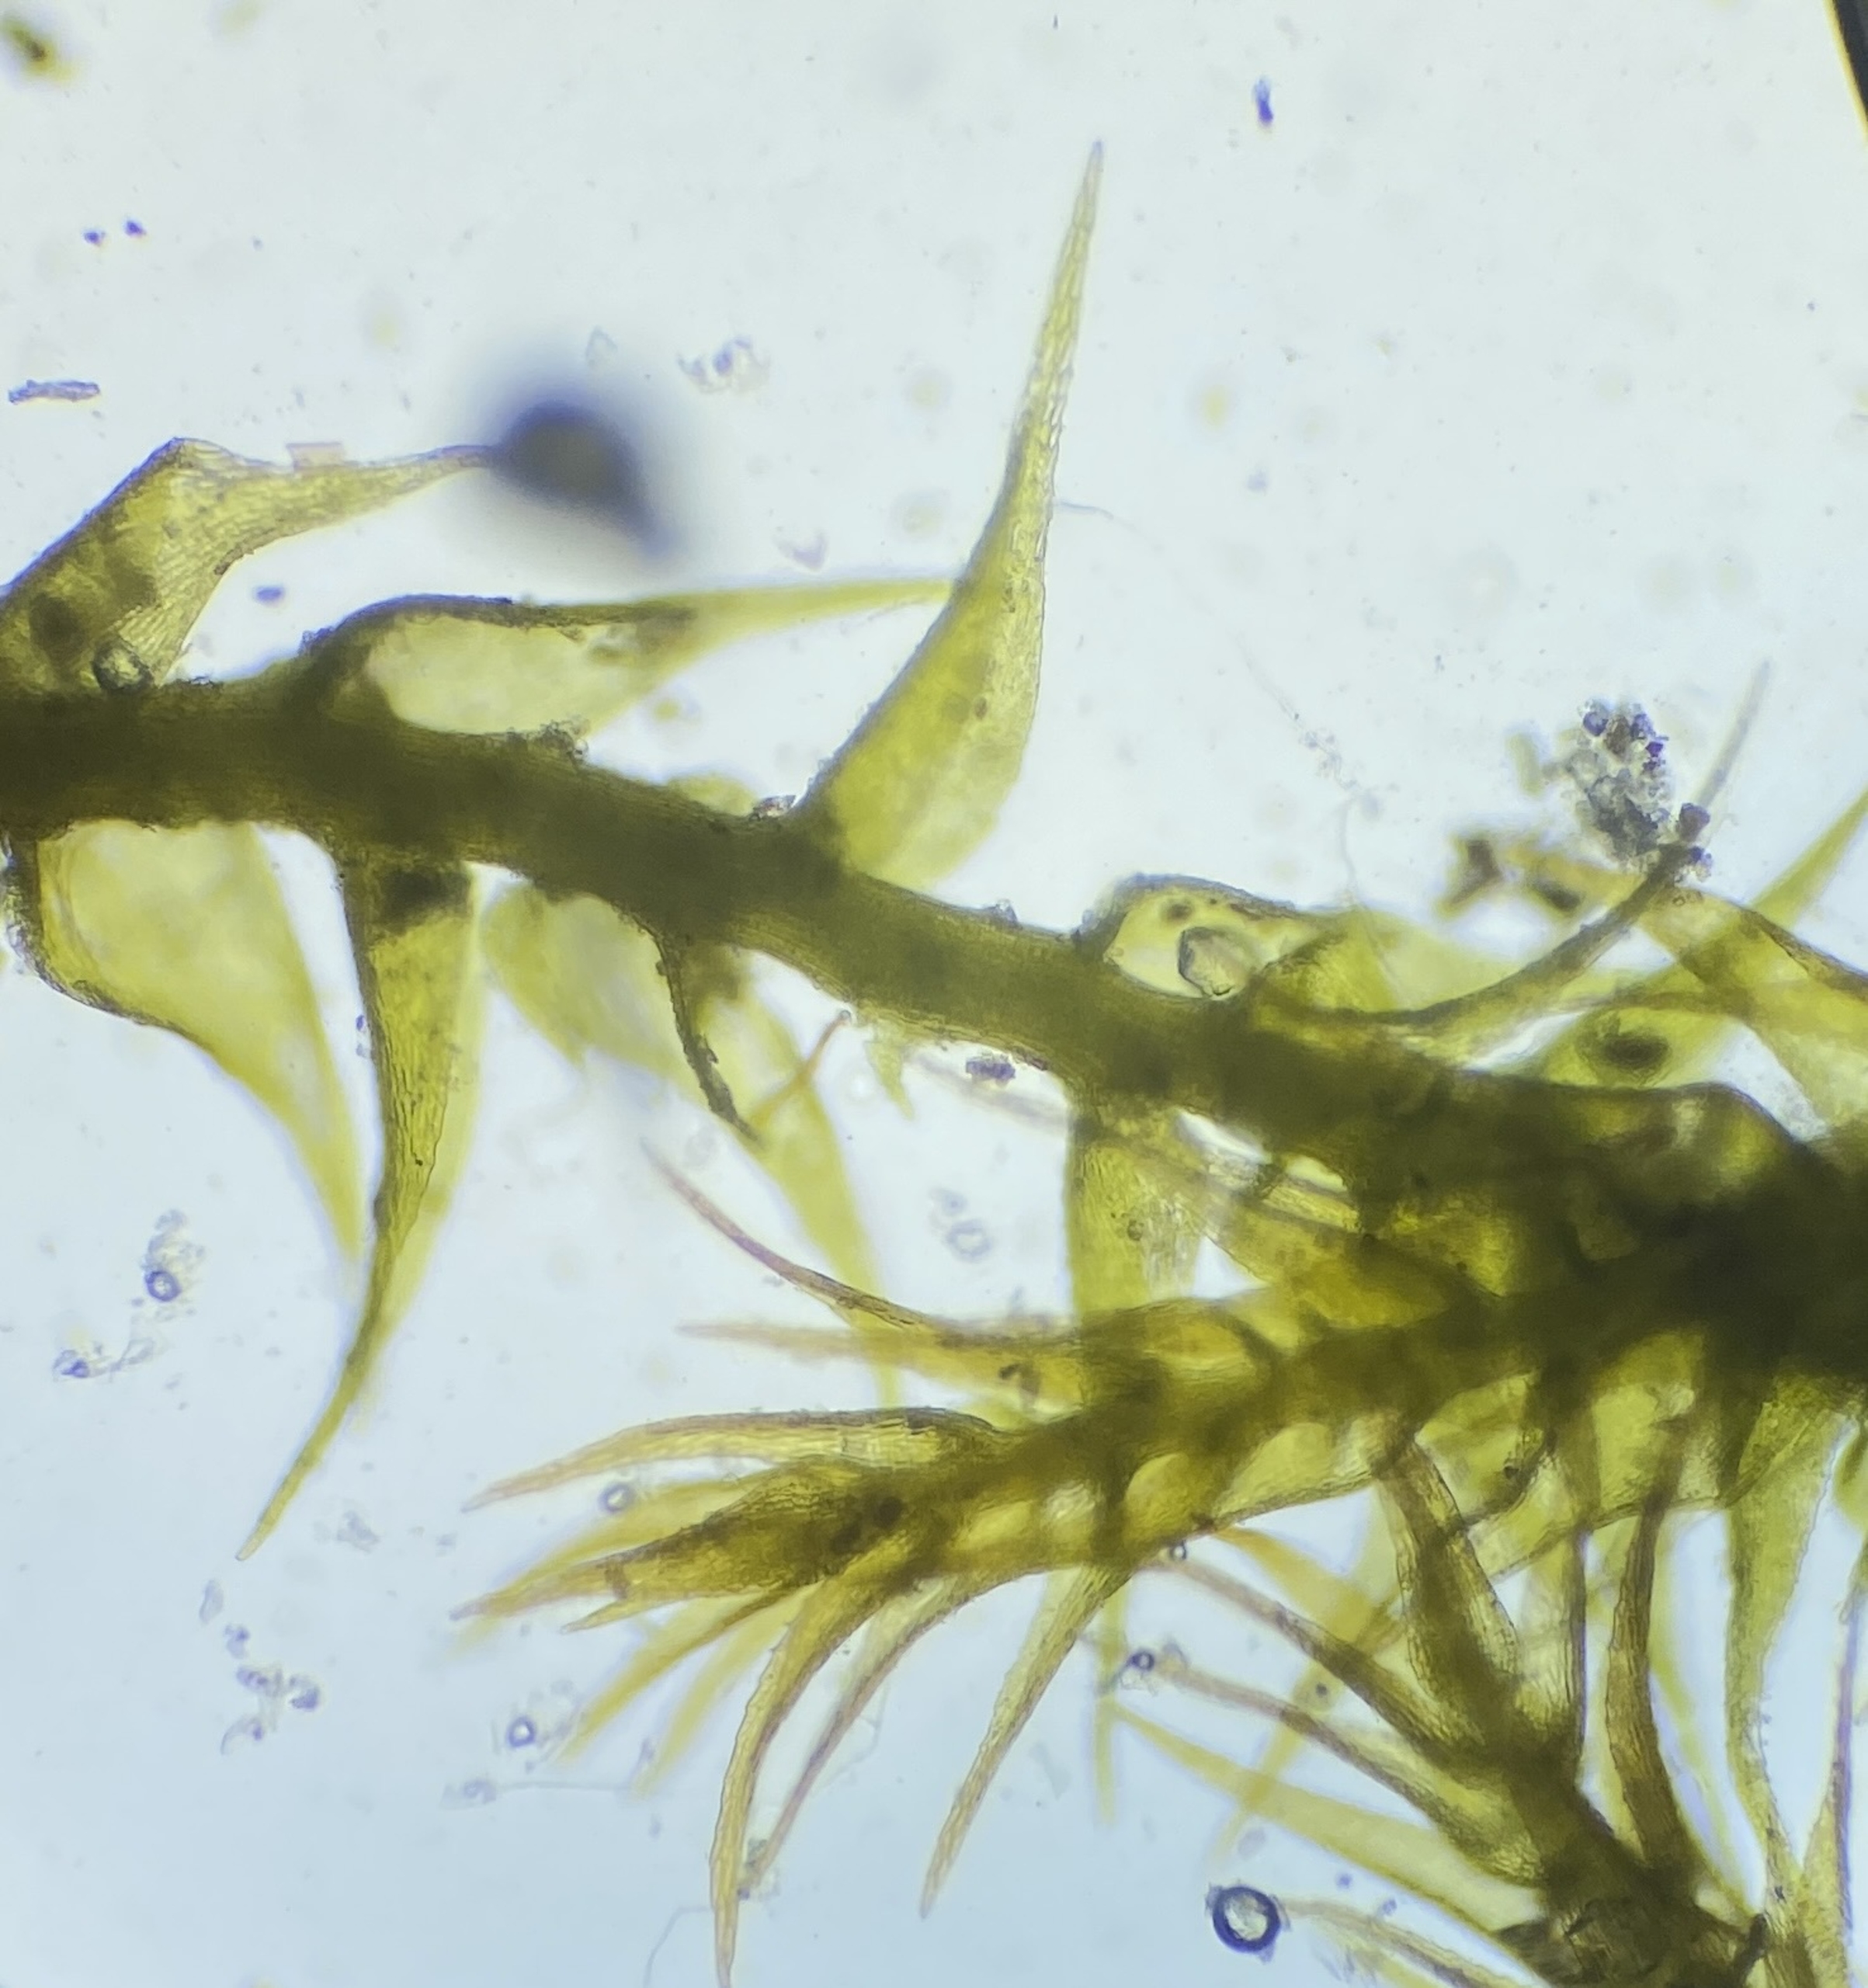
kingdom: Plantae
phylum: Bryophyta
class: Bryopsida
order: Hypnales
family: Amblystegiaceae
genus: Campylophyllopsis
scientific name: Campylophyllopsis calcarea
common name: Kalk-guldstjernemos
